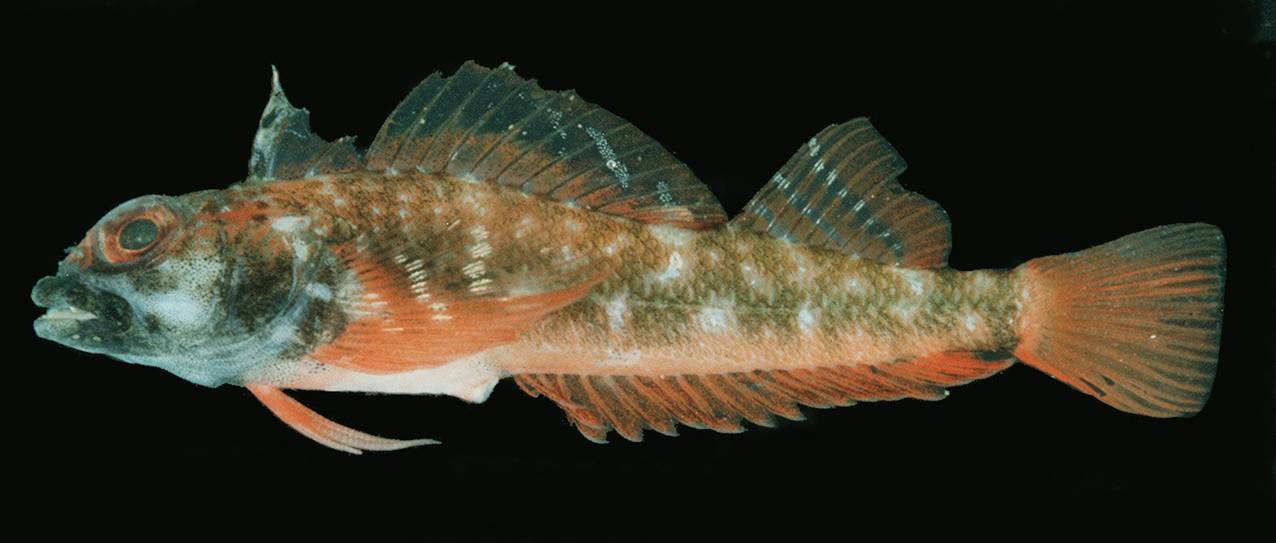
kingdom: Animalia
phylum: Chordata
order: Perciformes
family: Tripterygiidae
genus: Helcogramma
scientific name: Helcogramma steinitzi
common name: Red triplefin
